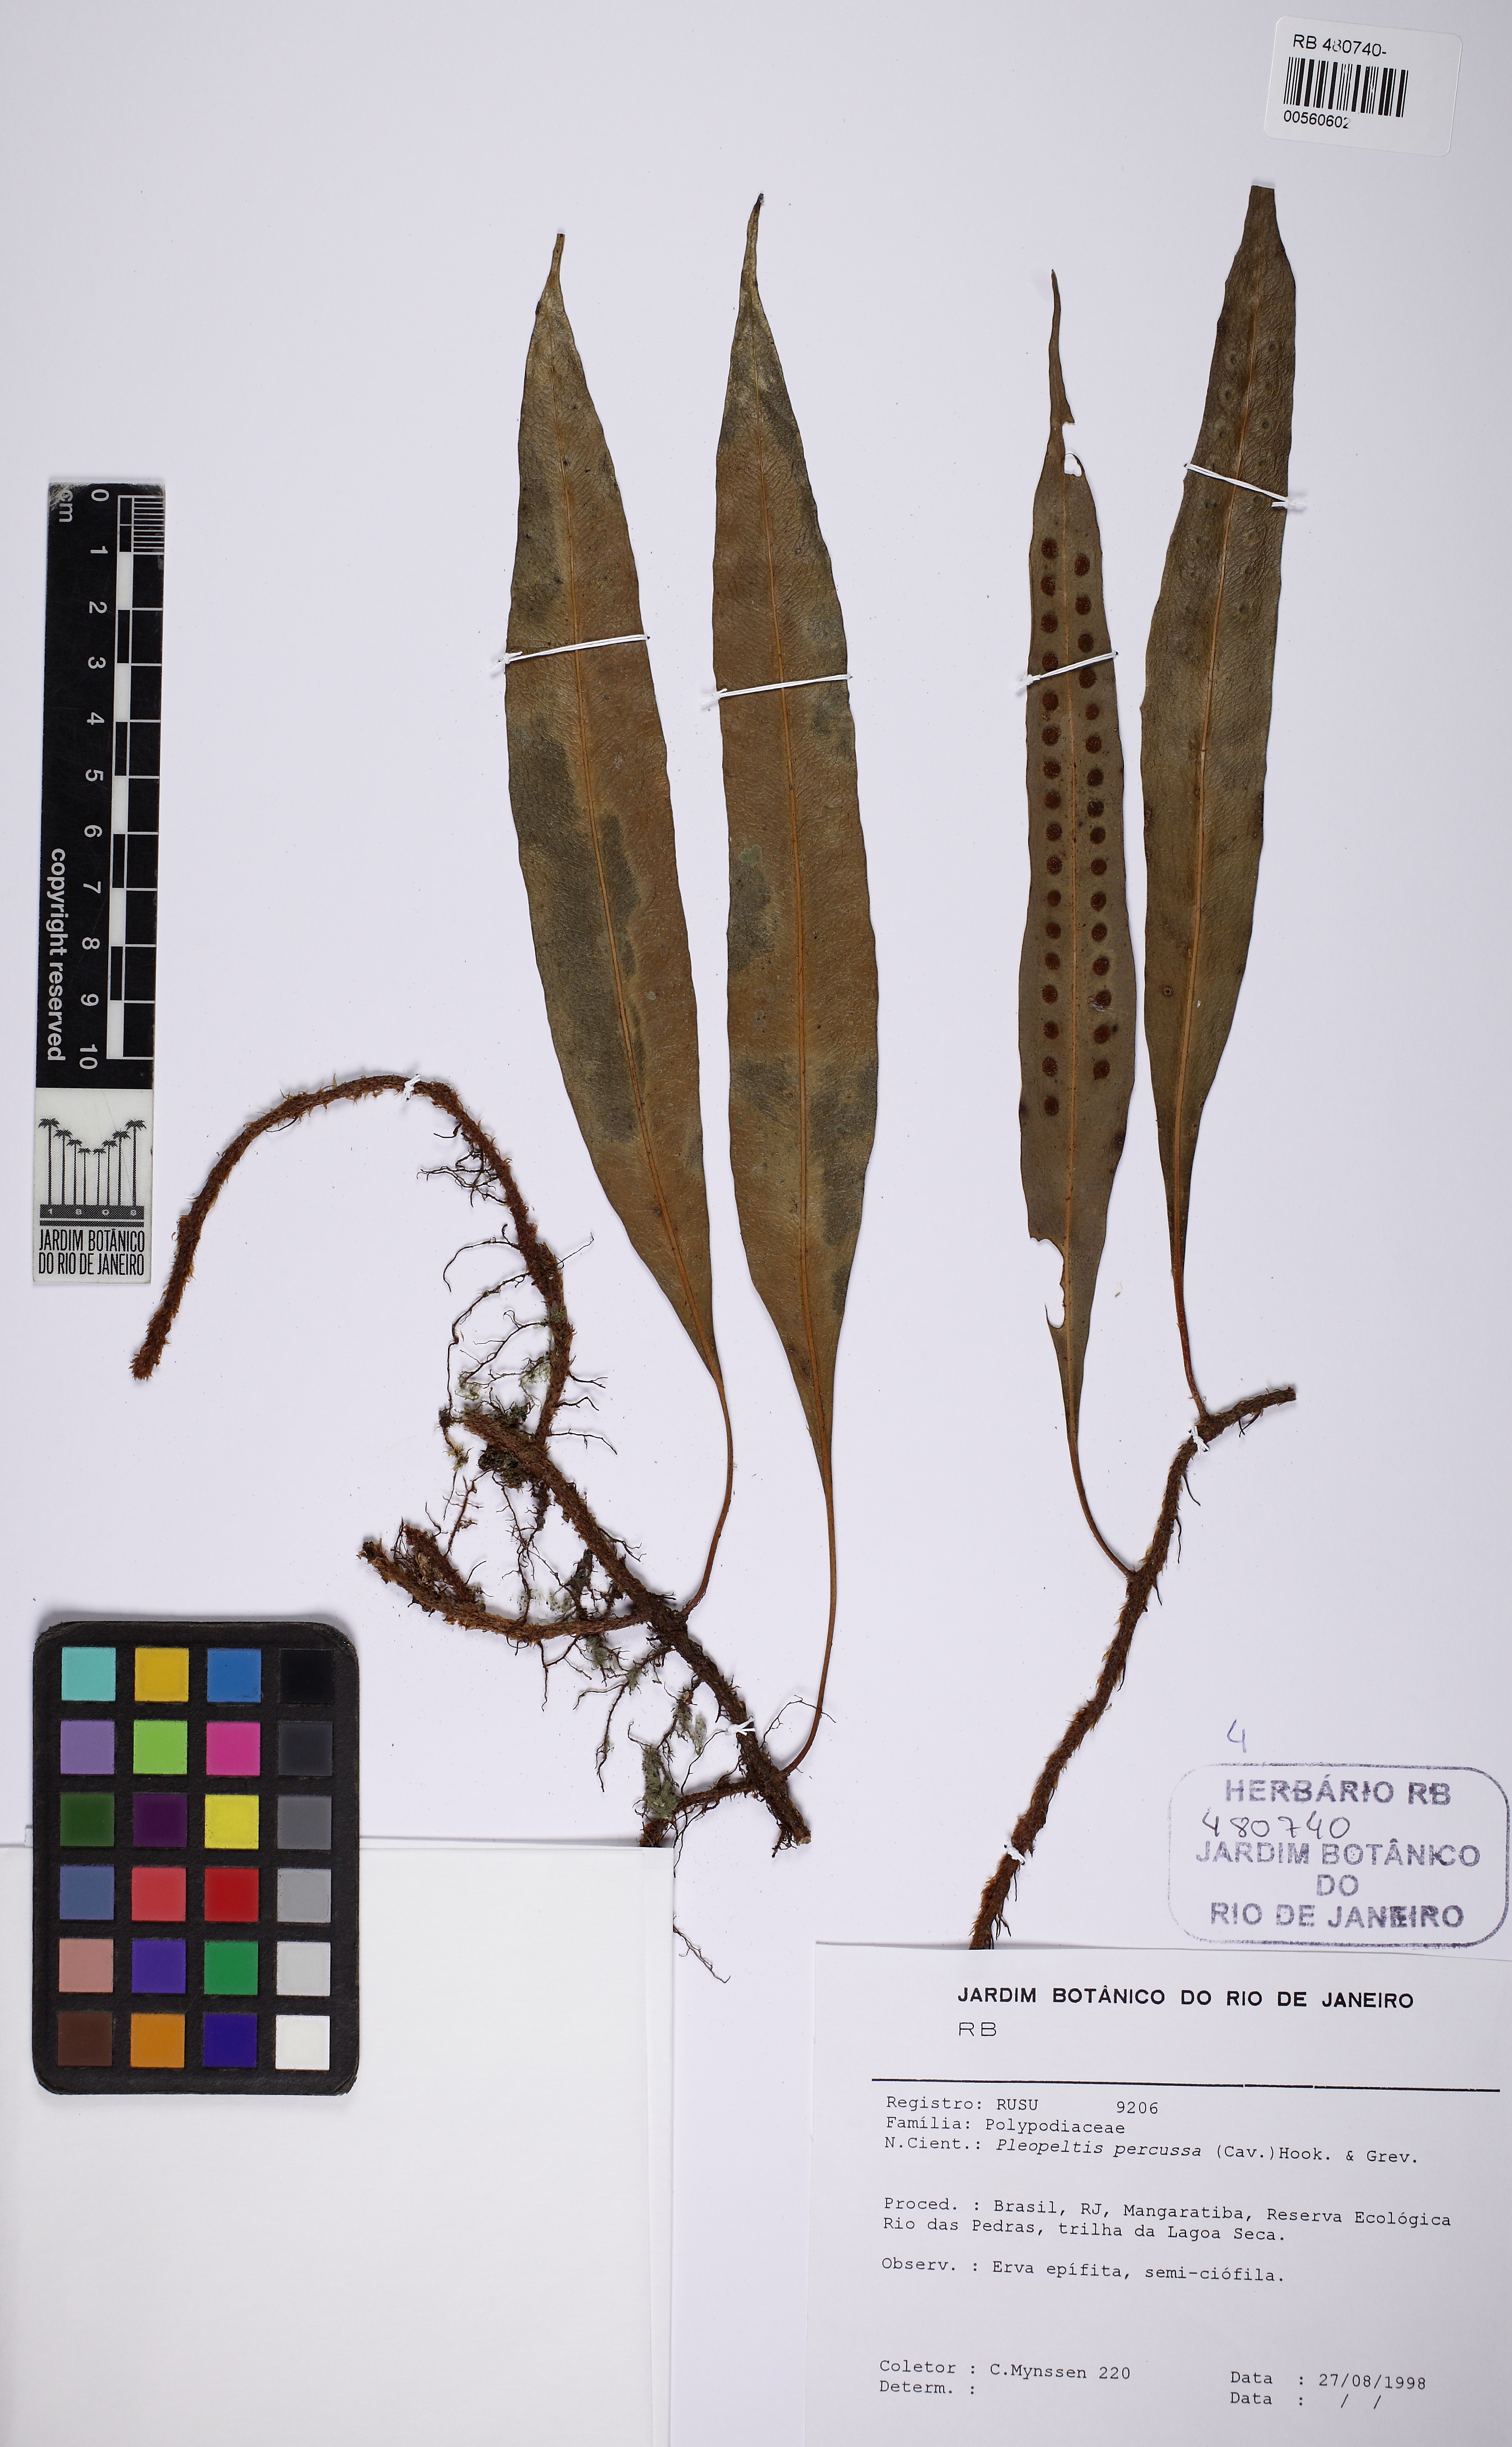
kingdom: Plantae
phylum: Tracheophyta
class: Polypodiopsida
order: Polypodiales
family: Polypodiaceae
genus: Microgramma
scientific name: Microgramma percussa
